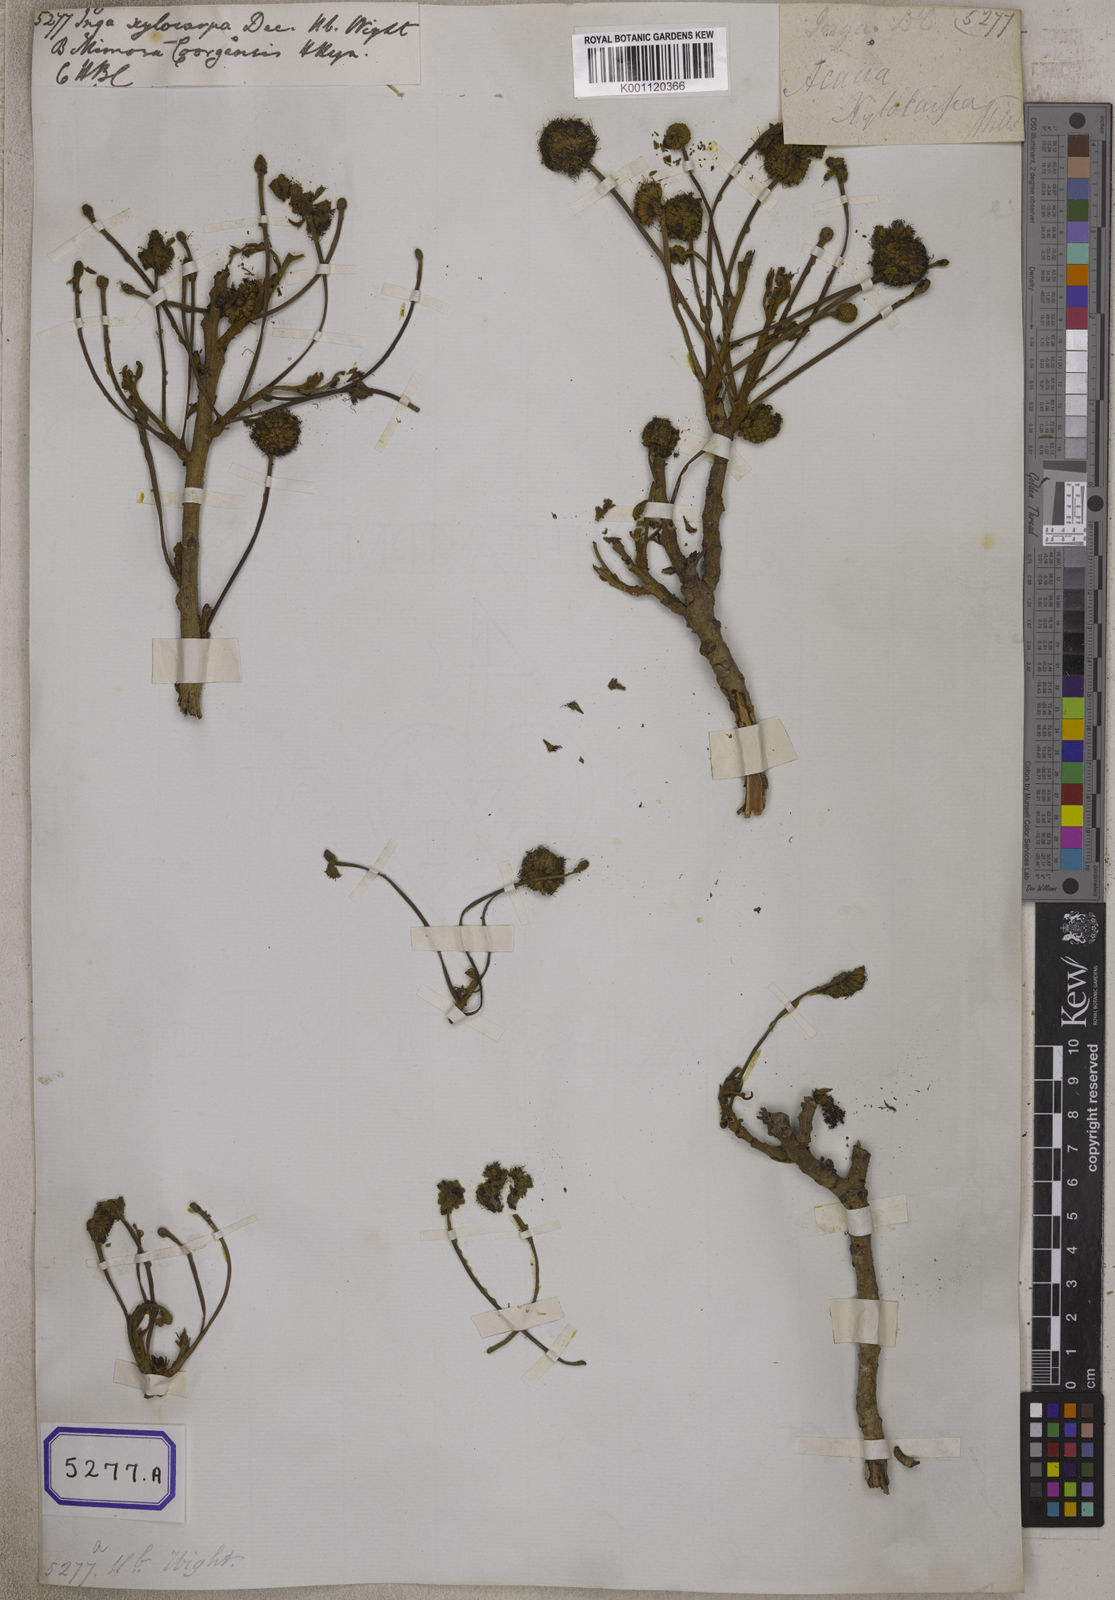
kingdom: Plantae
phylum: Tracheophyta
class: Magnoliopsida
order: Fabales
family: Fabaceae
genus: Xylia
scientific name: Xylia xylocarpa
